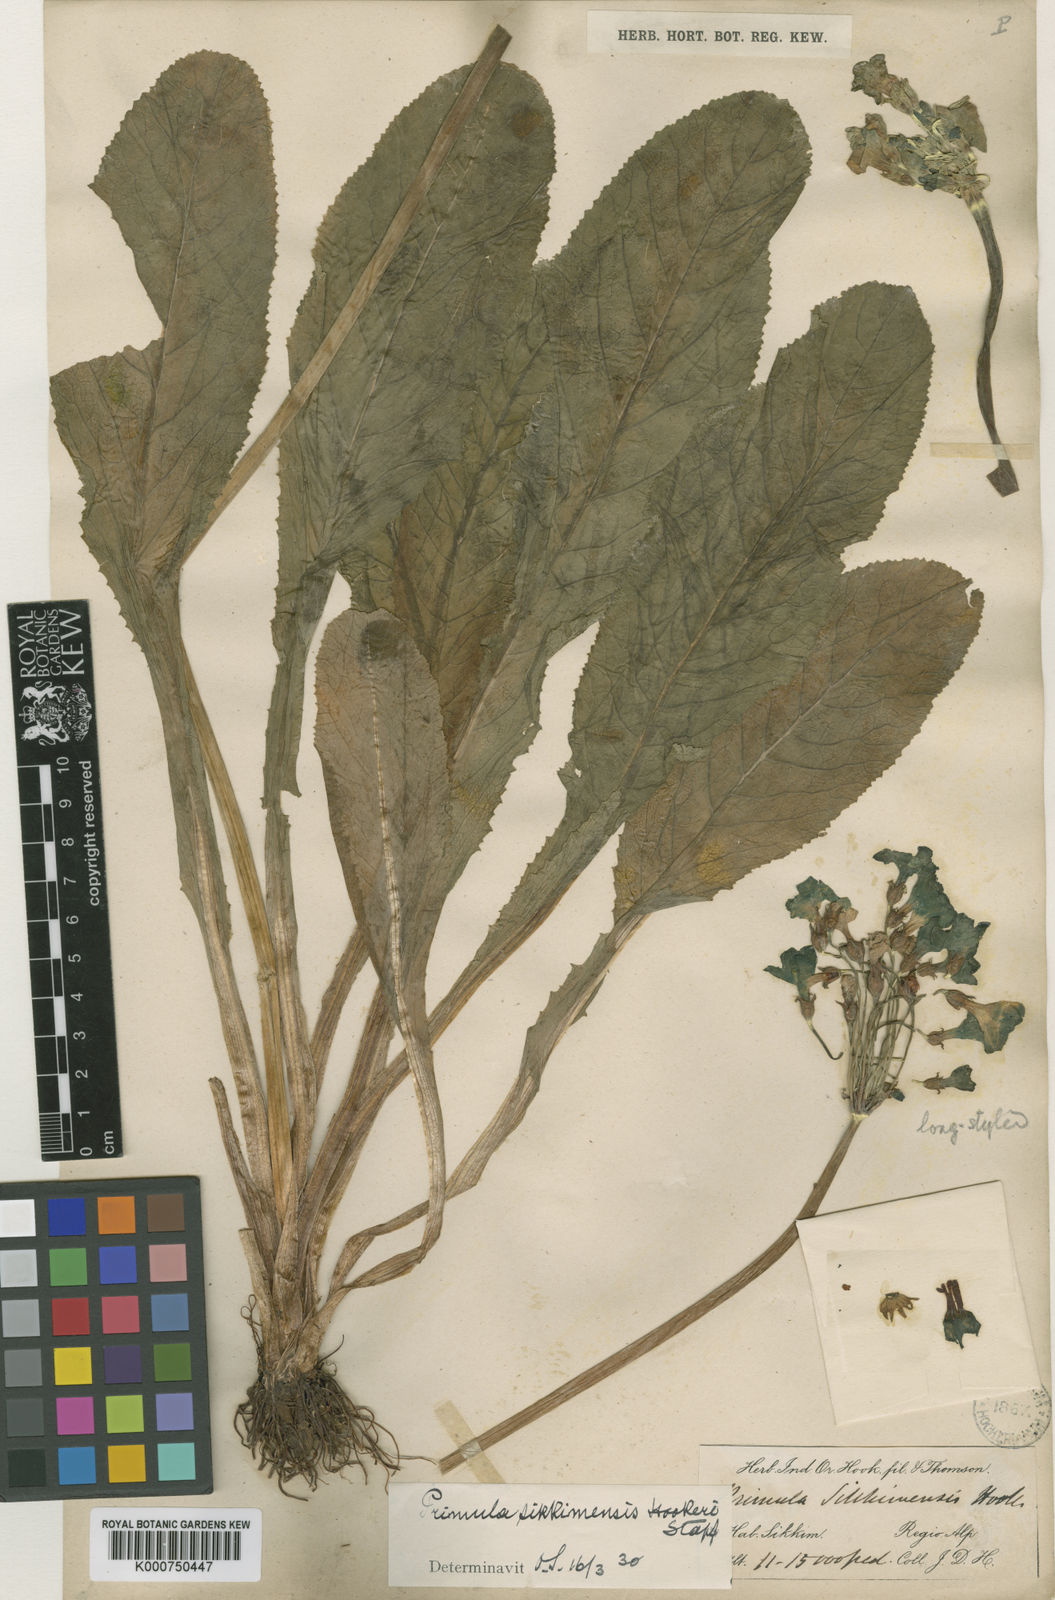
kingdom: Plantae
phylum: Tracheophyta
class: Magnoliopsida
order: Ericales
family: Primulaceae
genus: Primula
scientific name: Primula sikkimensis
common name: Sikkim cowslip
